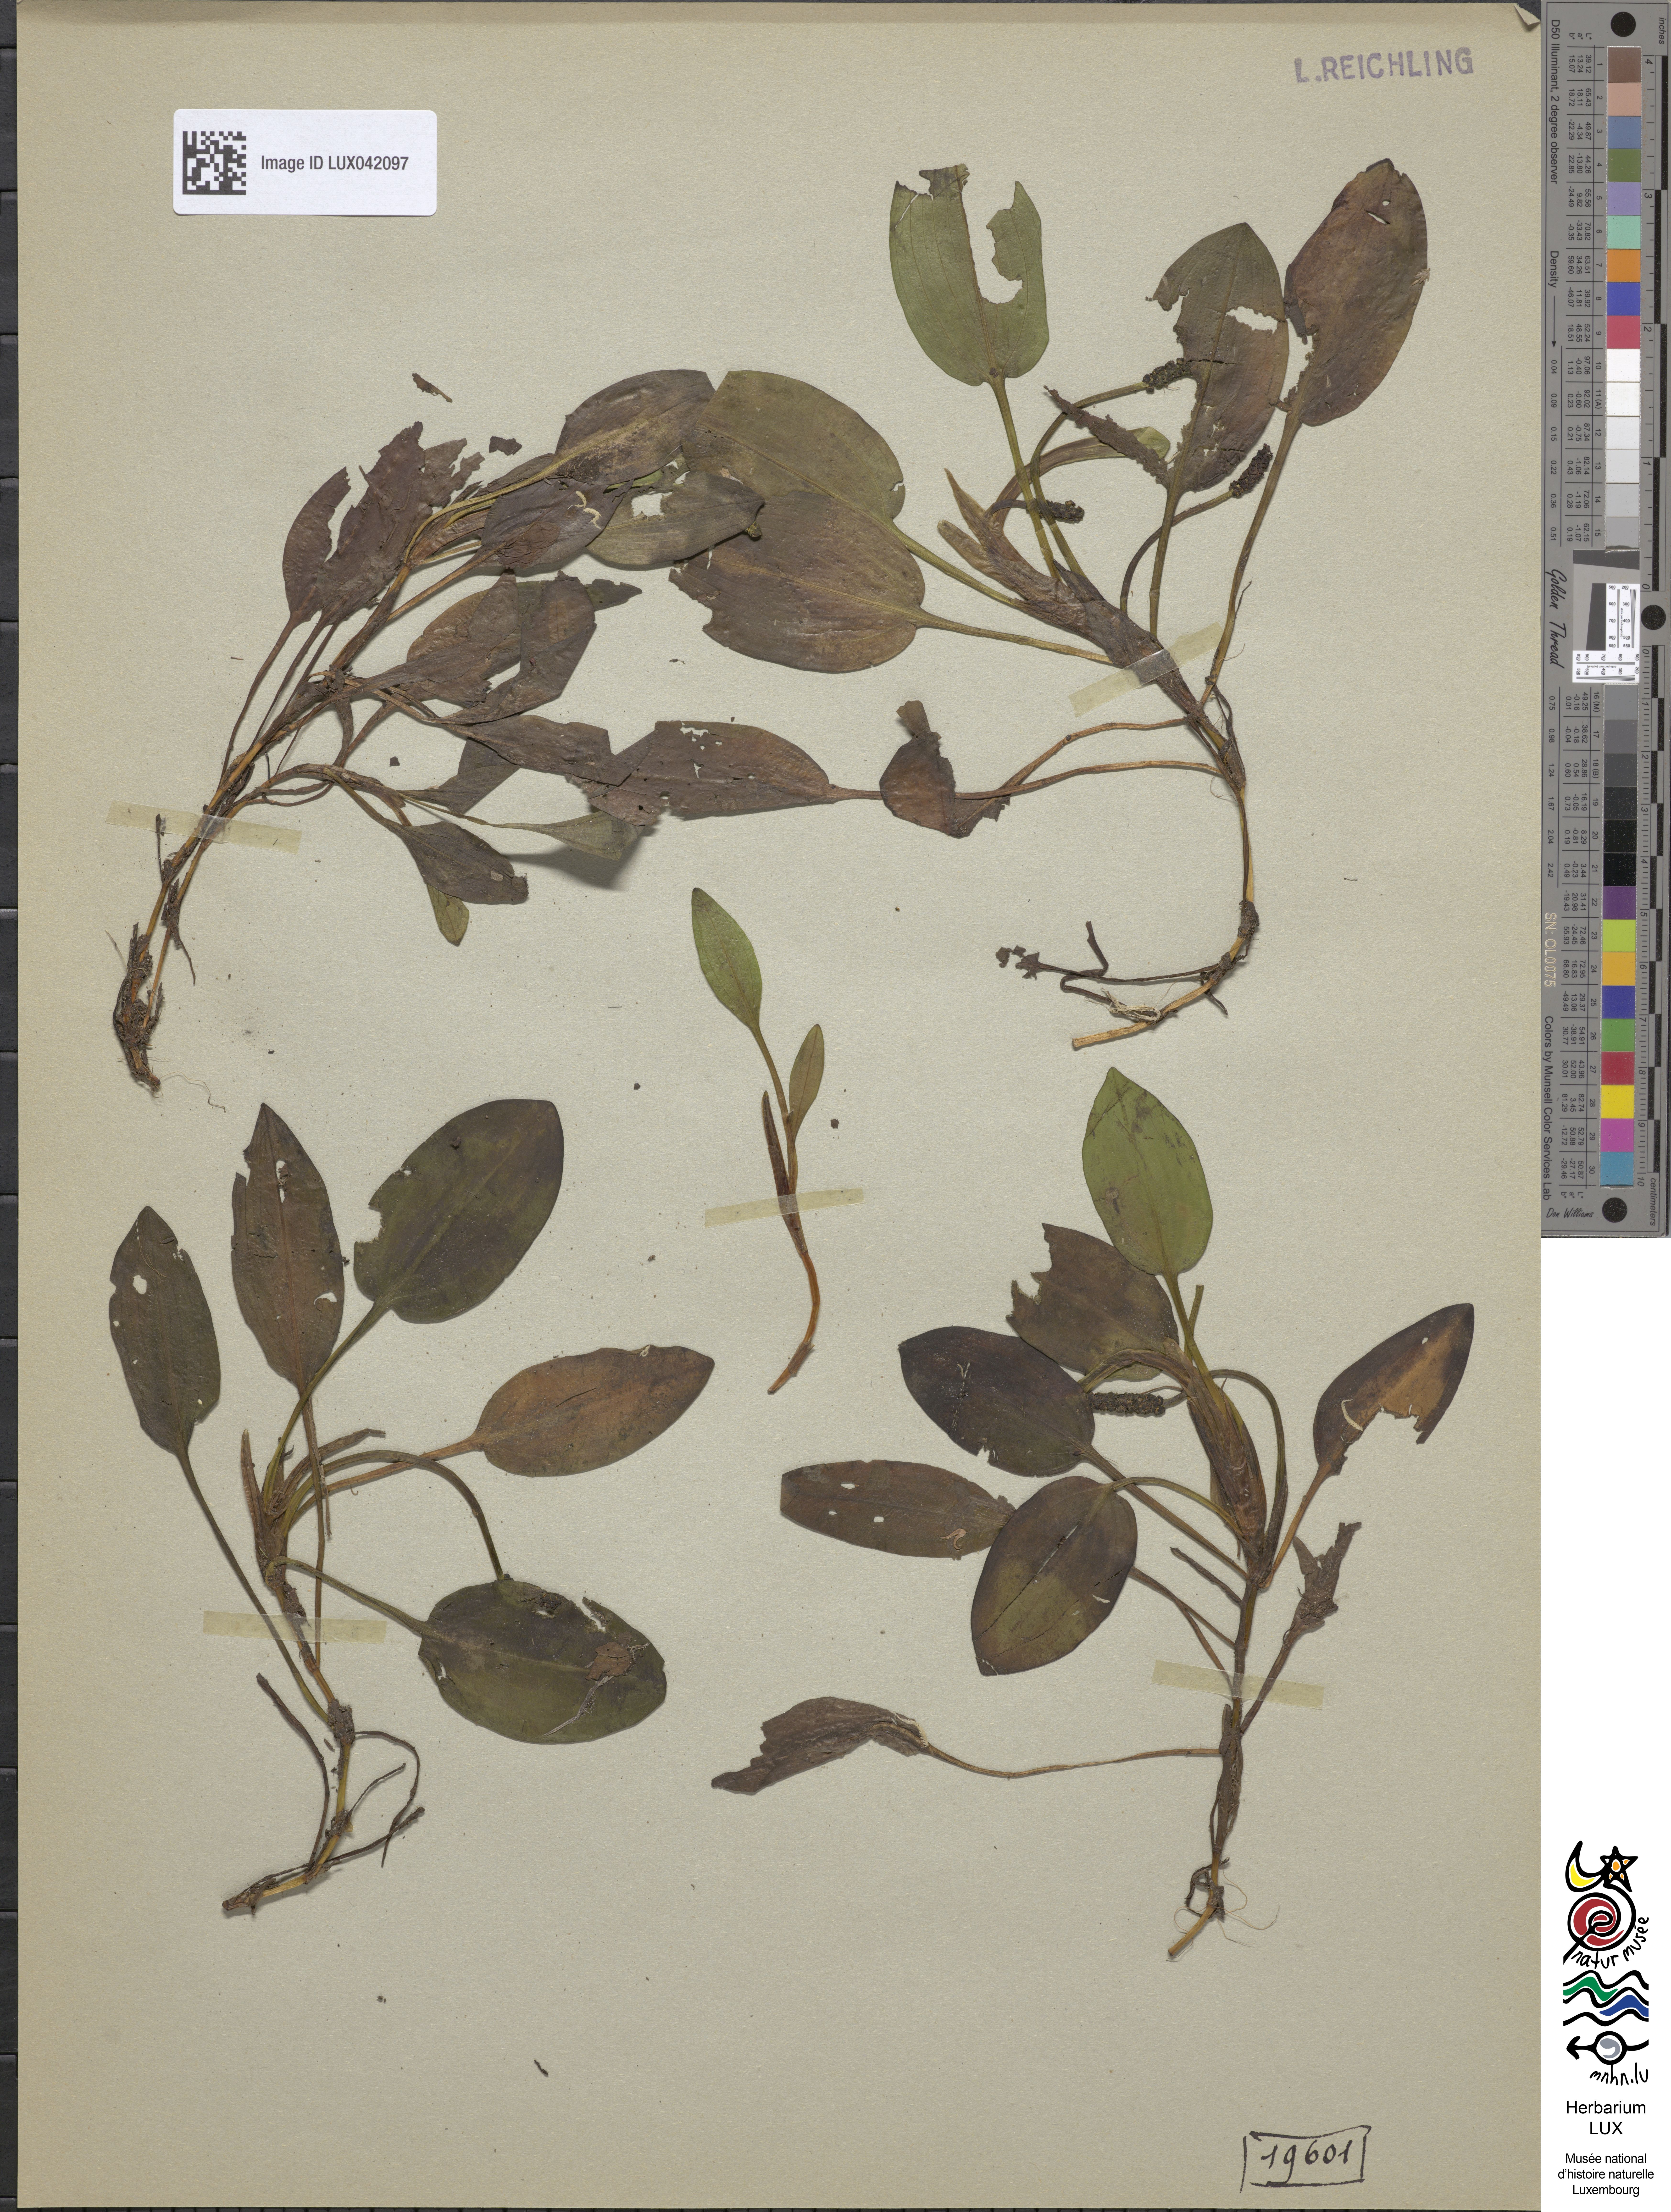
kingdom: Plantae
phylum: Tracheophyta
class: Liliopsida
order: Alismatales
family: Potamogetonaceae
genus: Potamogeton
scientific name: Potamogeton polygonifolius
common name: Bog pondweed
